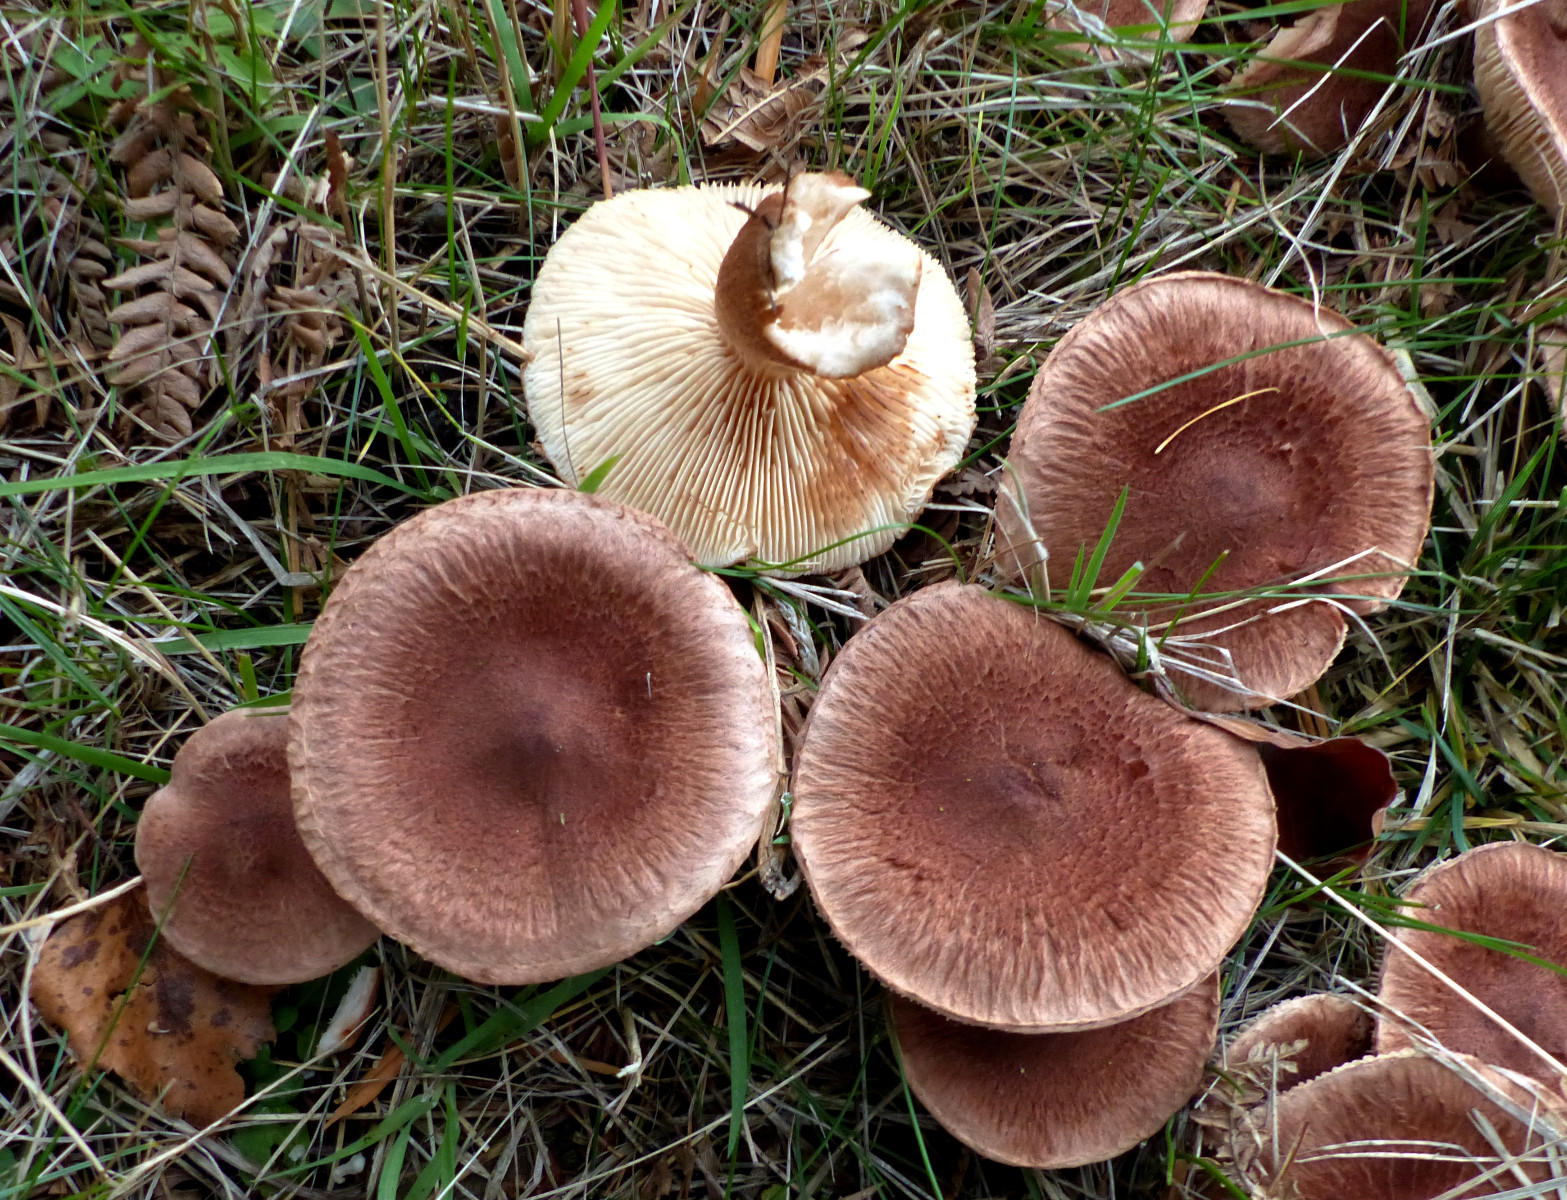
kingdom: Fungi
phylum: Basidiomycota
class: Agaricomycetes
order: Agaricales
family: Tricholomataceae
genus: Tricholoma
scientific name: Tricholoma vaccinum
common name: ko-ridderhat
